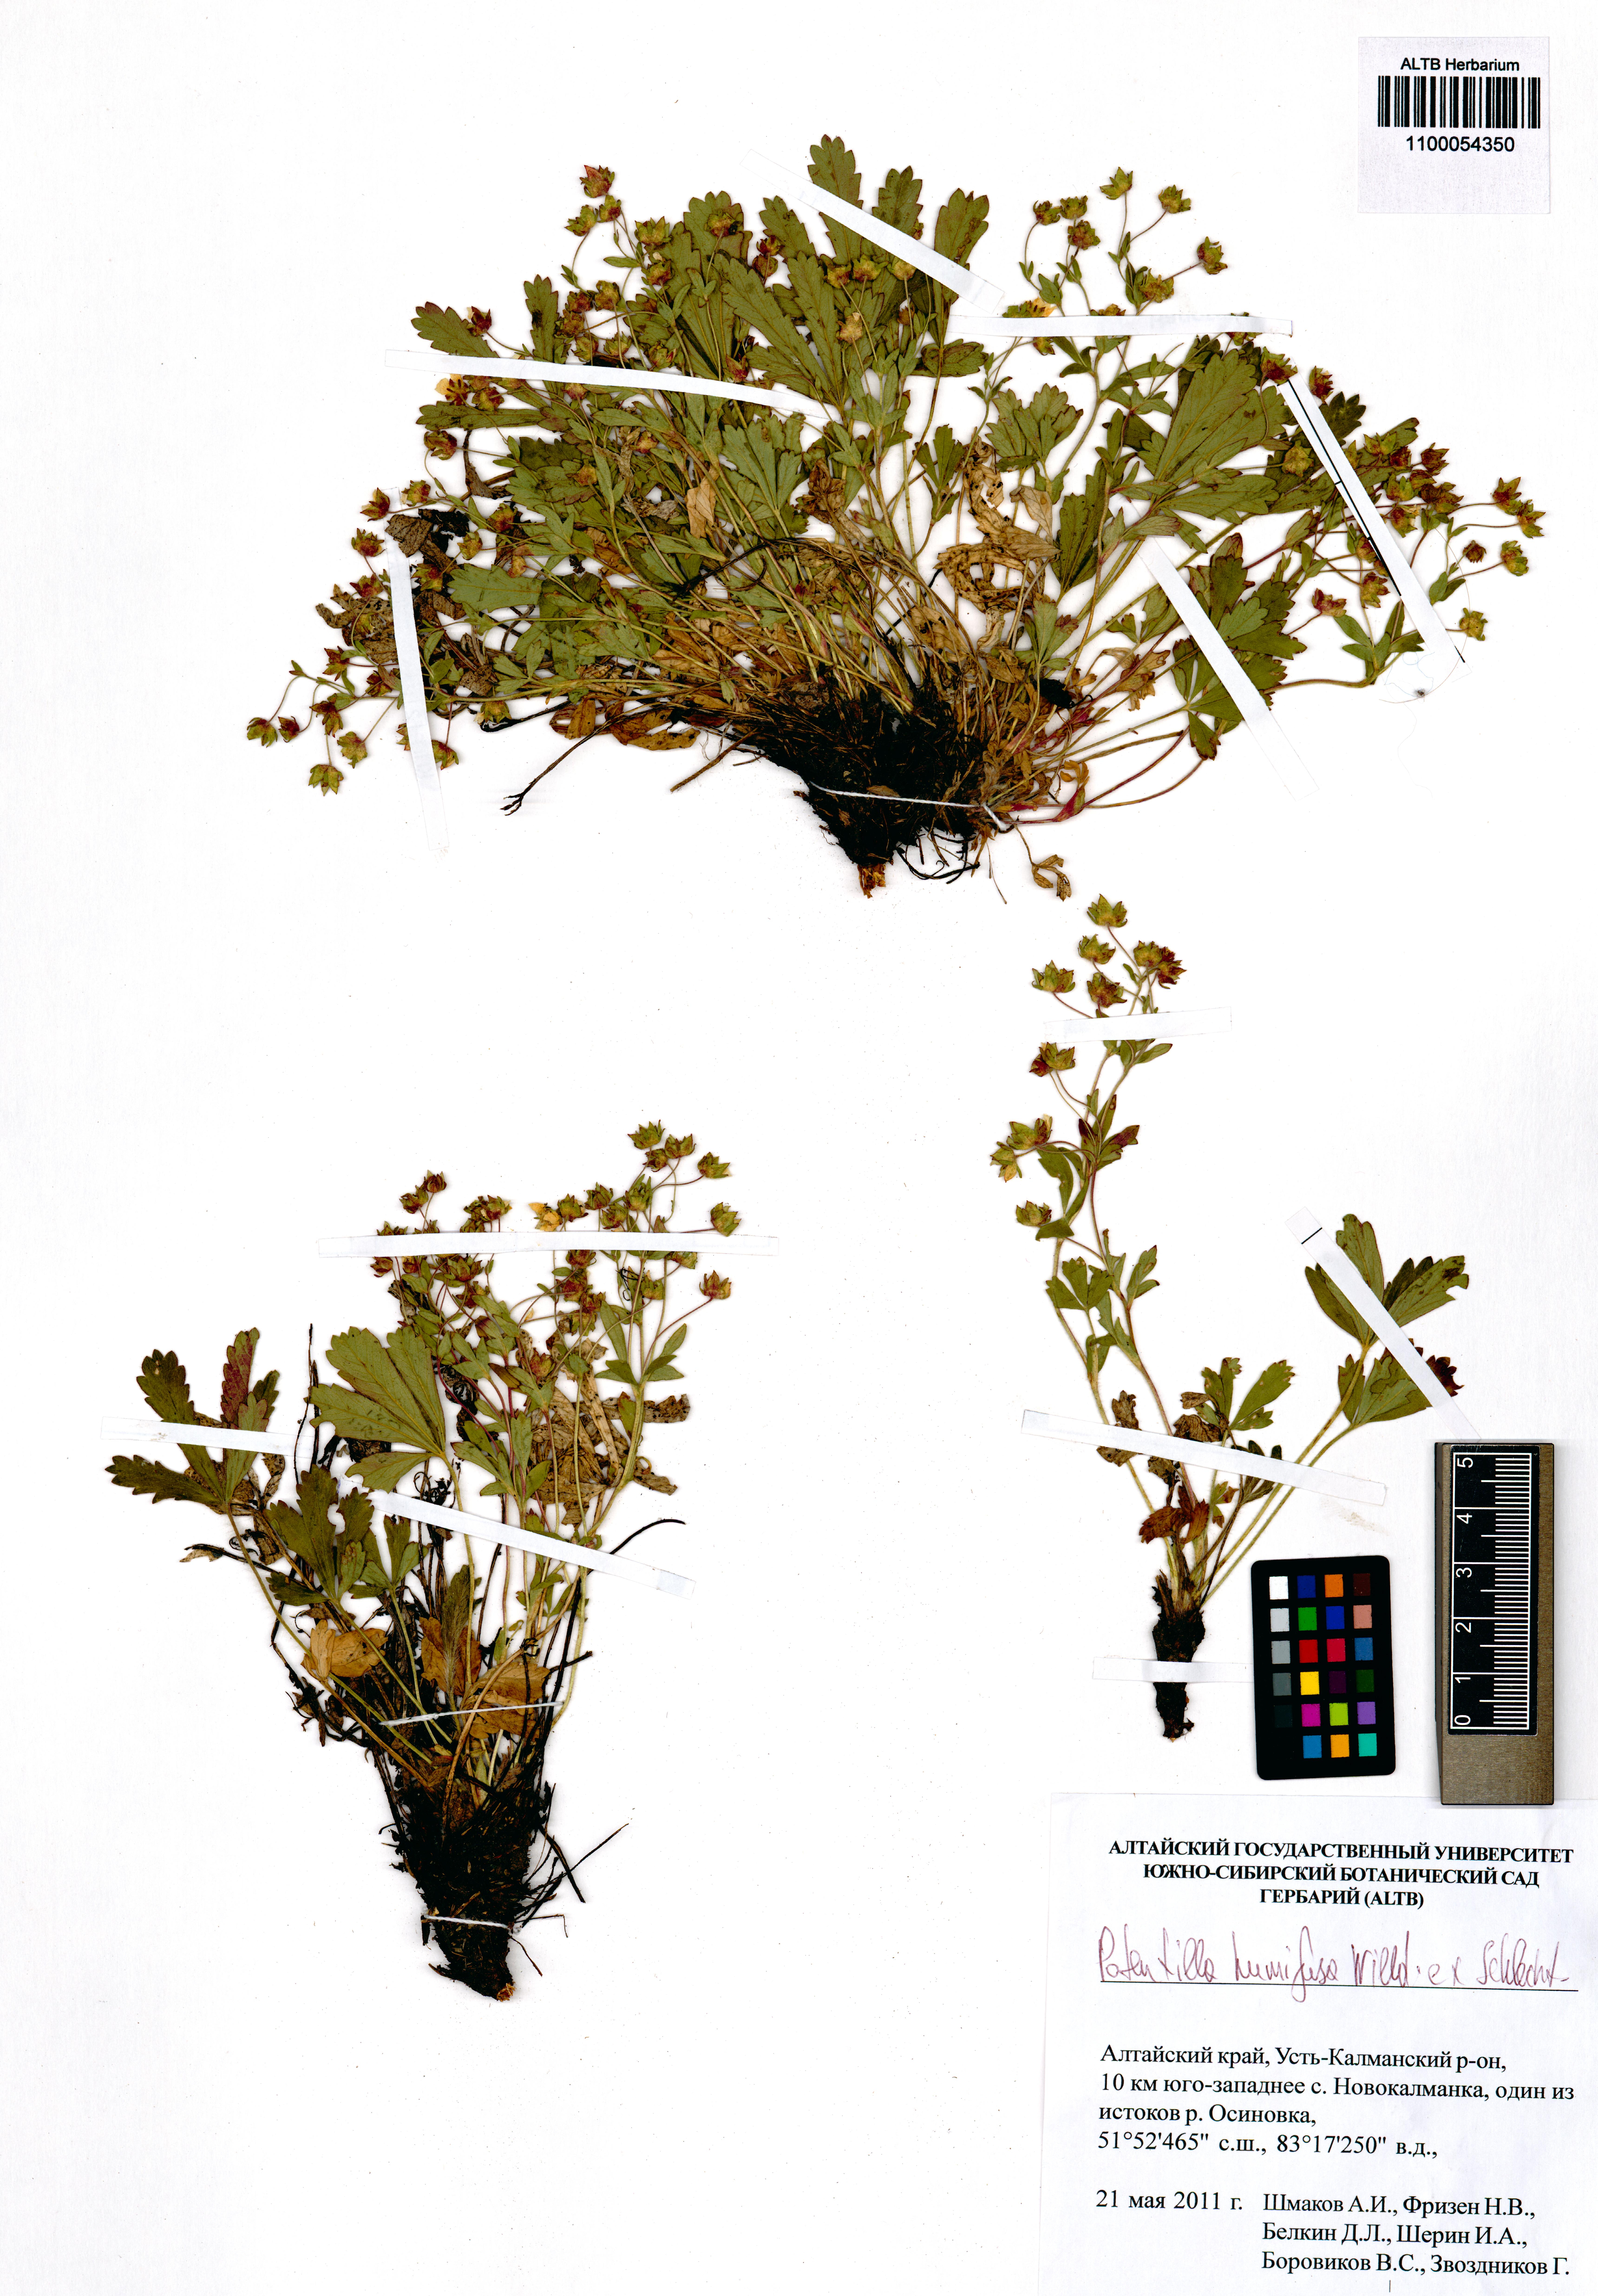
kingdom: Plantae
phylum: Tracheophyta
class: Magnoliopsida
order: Rosales
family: Rosaceae
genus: Potentilla
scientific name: Potentilla humifusa
